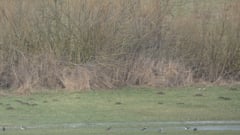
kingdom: Animalia
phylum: Chordata
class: Aves
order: Charadriiformes
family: Charadriidae
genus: Vanellus
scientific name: Vanellus vanellus
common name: Northern lapwing
